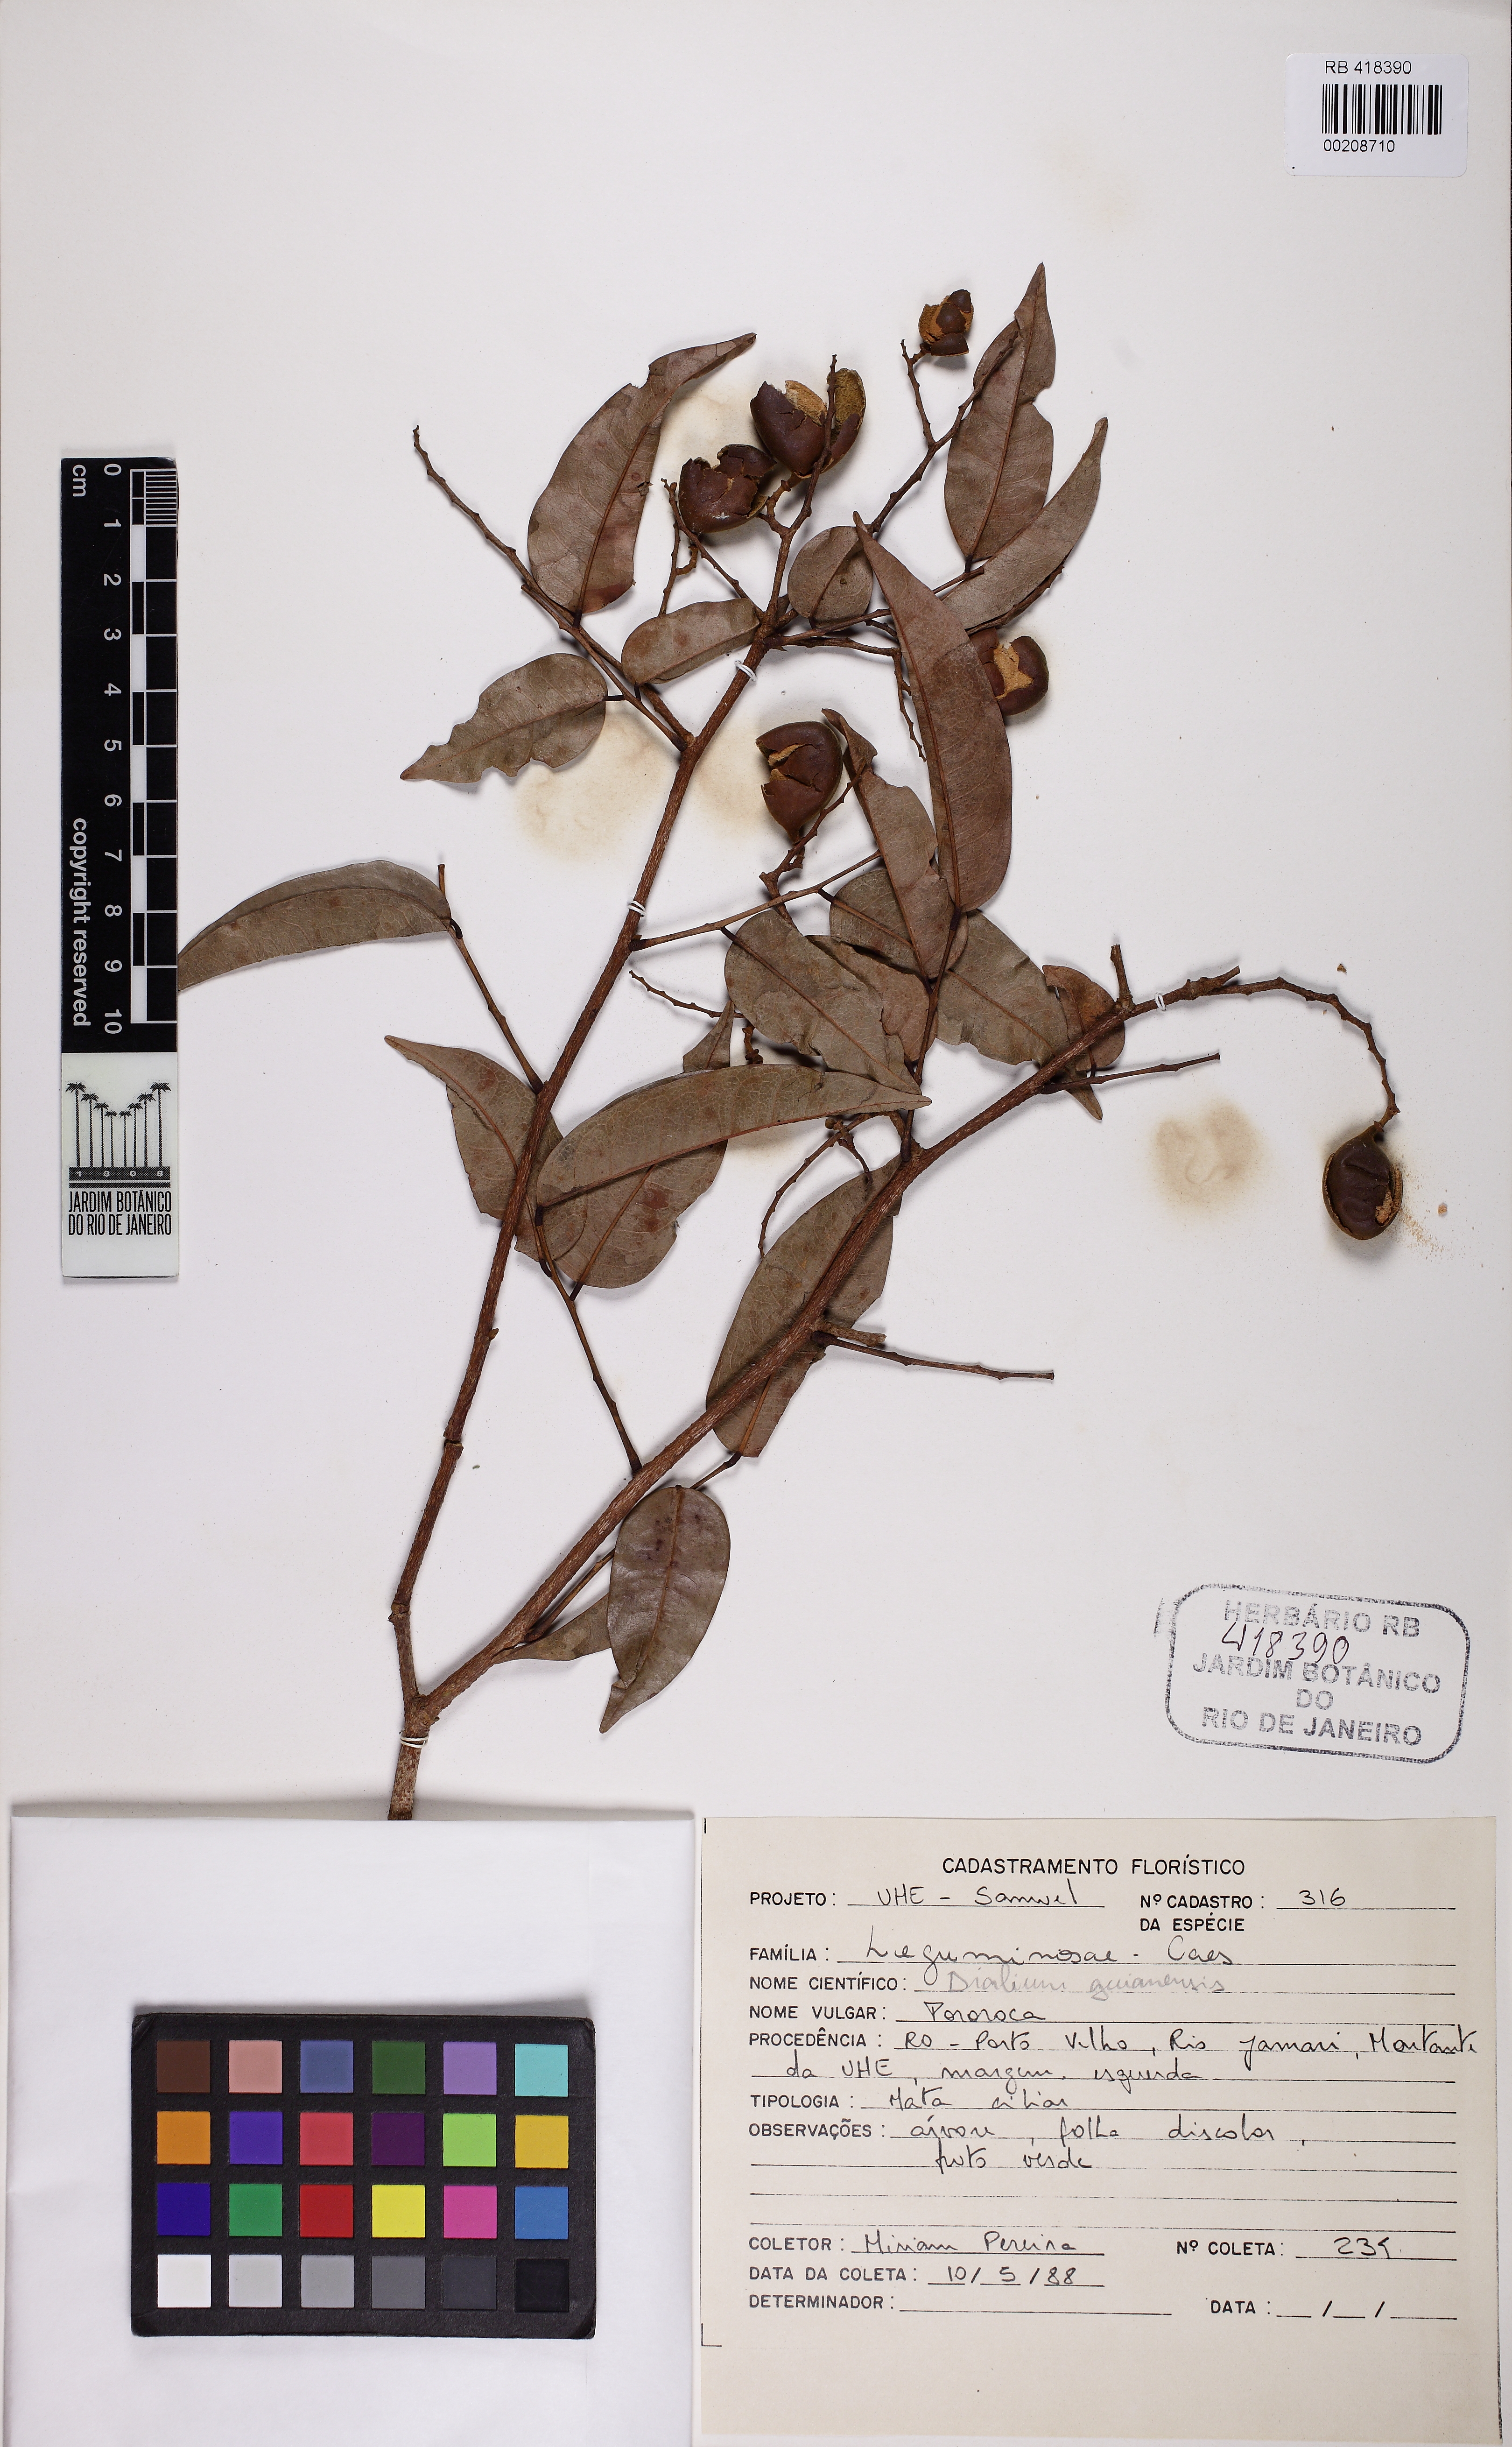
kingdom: Plantae
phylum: Tracheophyta
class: Magnoliopsida
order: Fabales
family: Fabaceae
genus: Dialium
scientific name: Dialium guianense
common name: Ironwood
